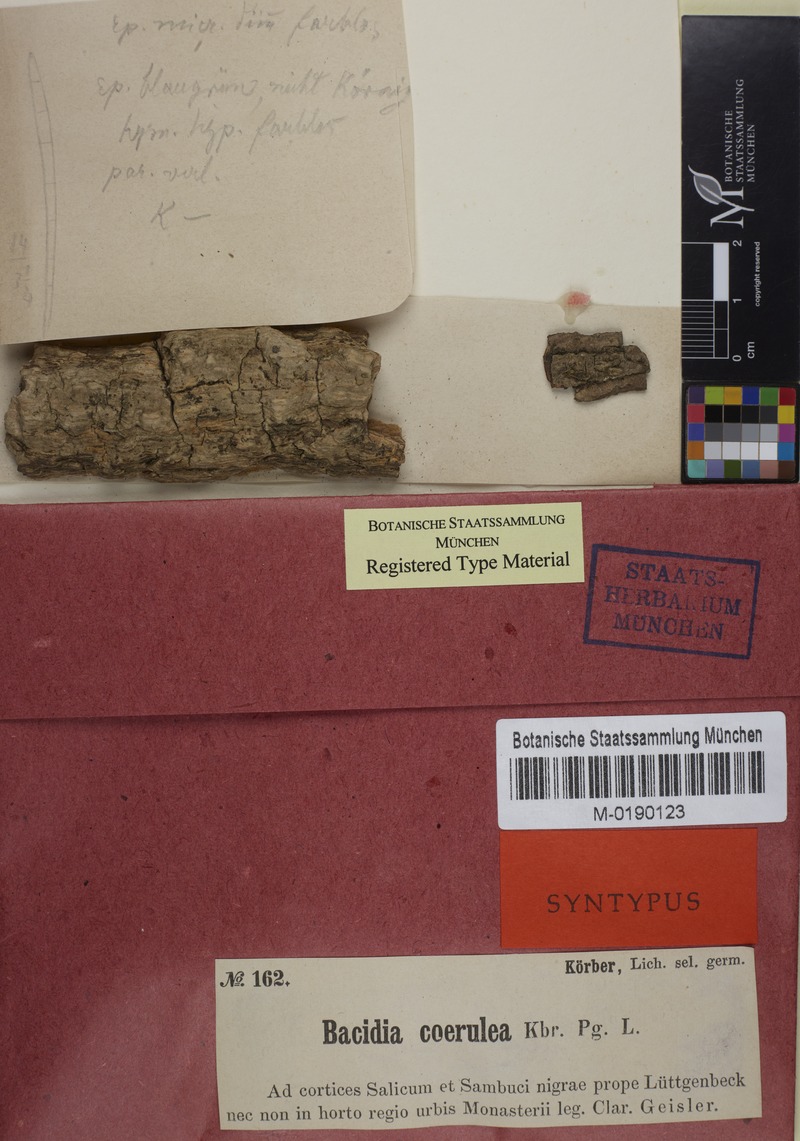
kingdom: Fungi
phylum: Ascomycota
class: Lecanoromycetes
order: Lecanorales
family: Ramalinaceae
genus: Bacidia
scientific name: Bacidia friesiana
